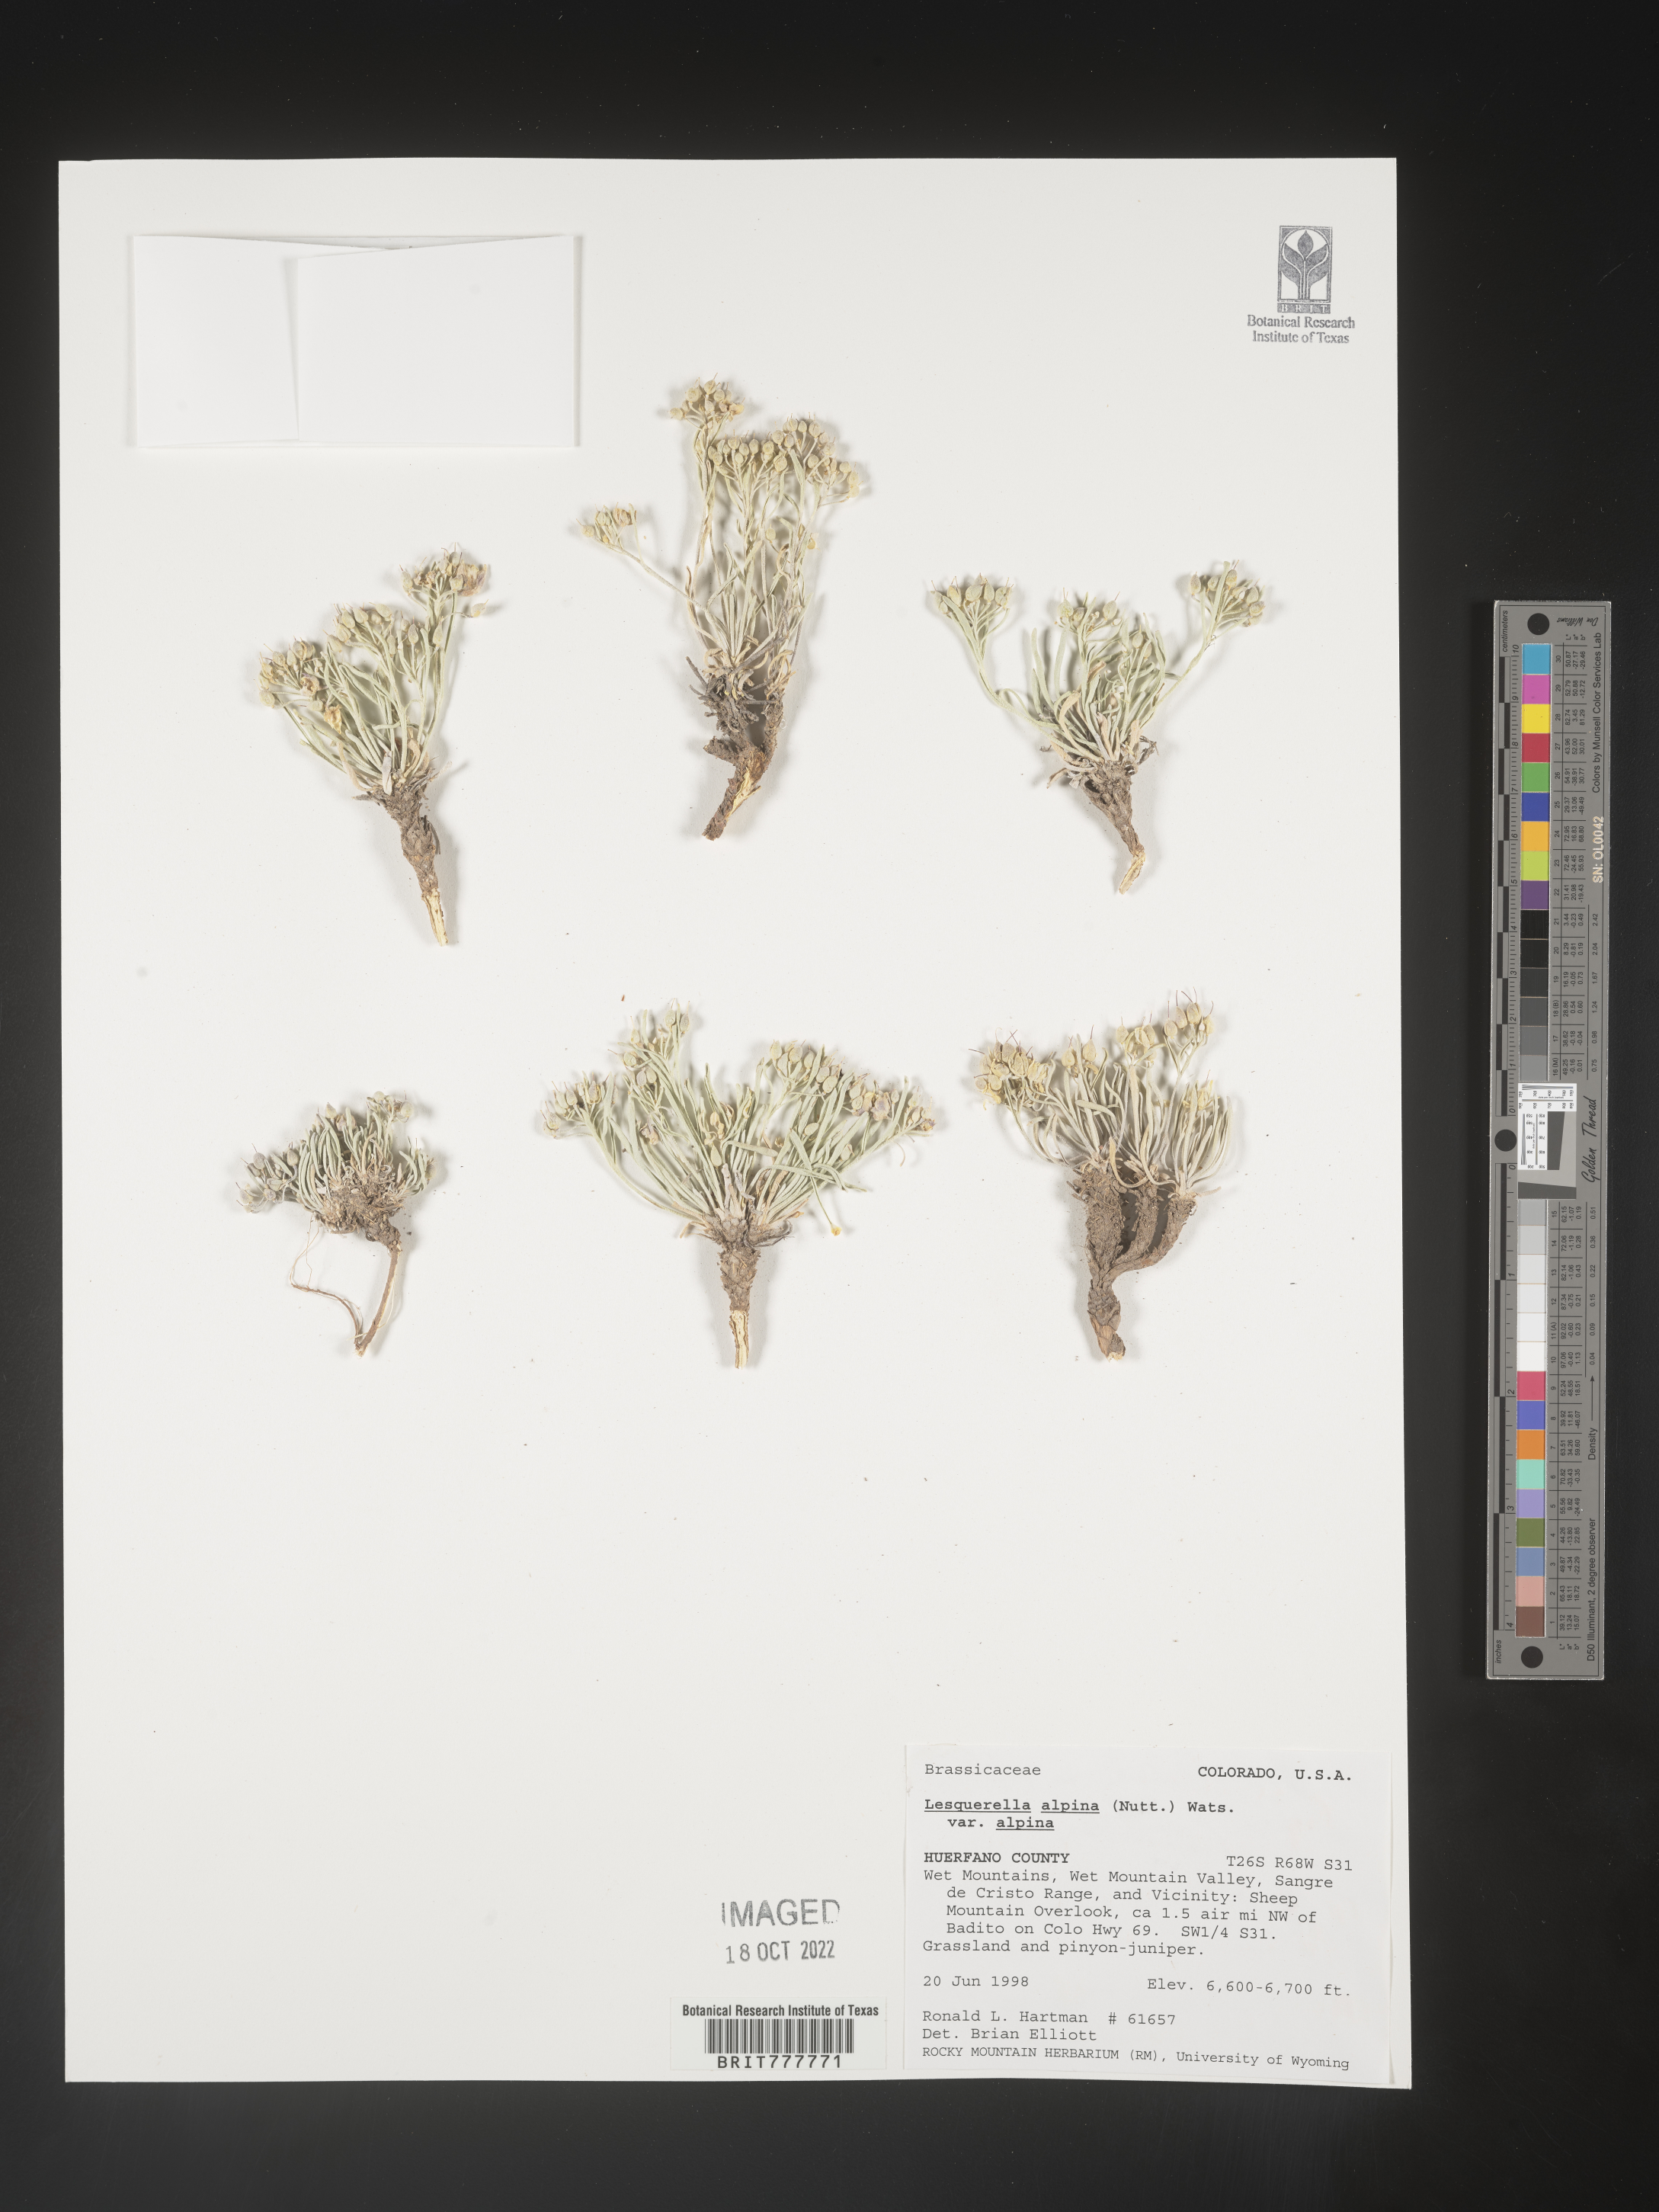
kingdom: Chromista
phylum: Cercozoa
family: Psammonobiotidae
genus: Lesquerella
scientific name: Lesquerella
